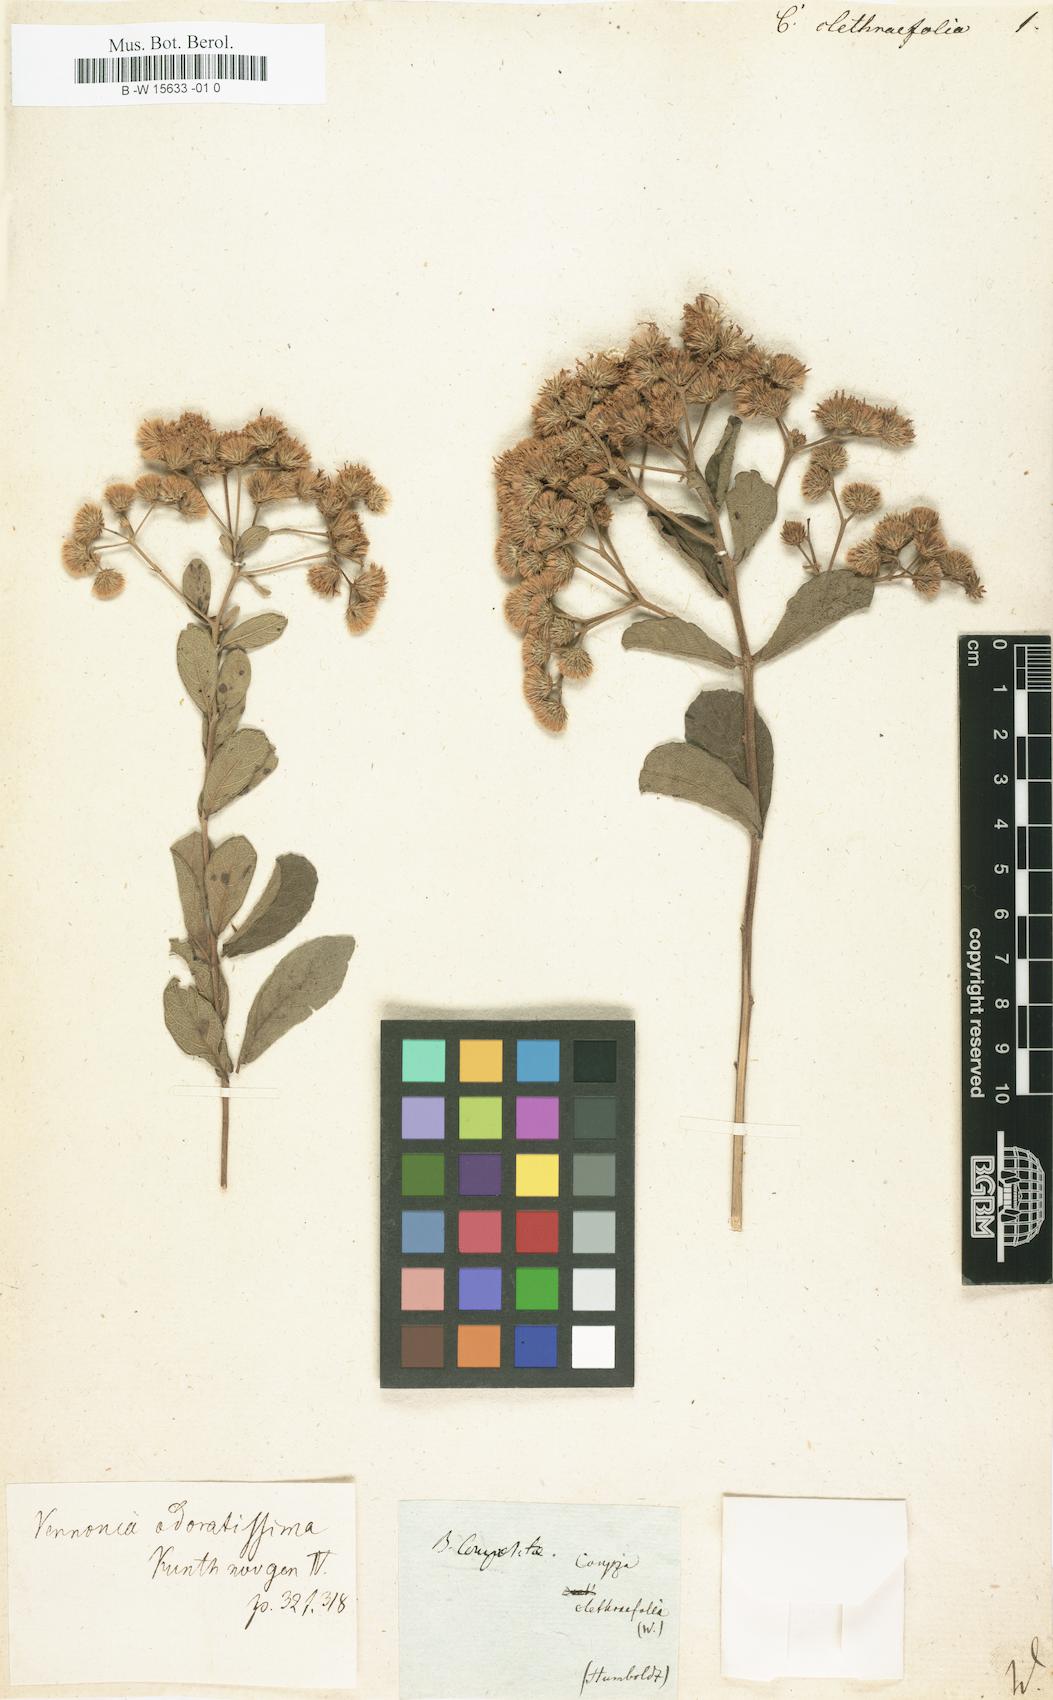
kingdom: Plantae
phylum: Tracheophyta
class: Magnoliopsida
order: Asterales
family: Asteraceae
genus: Vernonanthura
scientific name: Vernonanthura brasiliana
